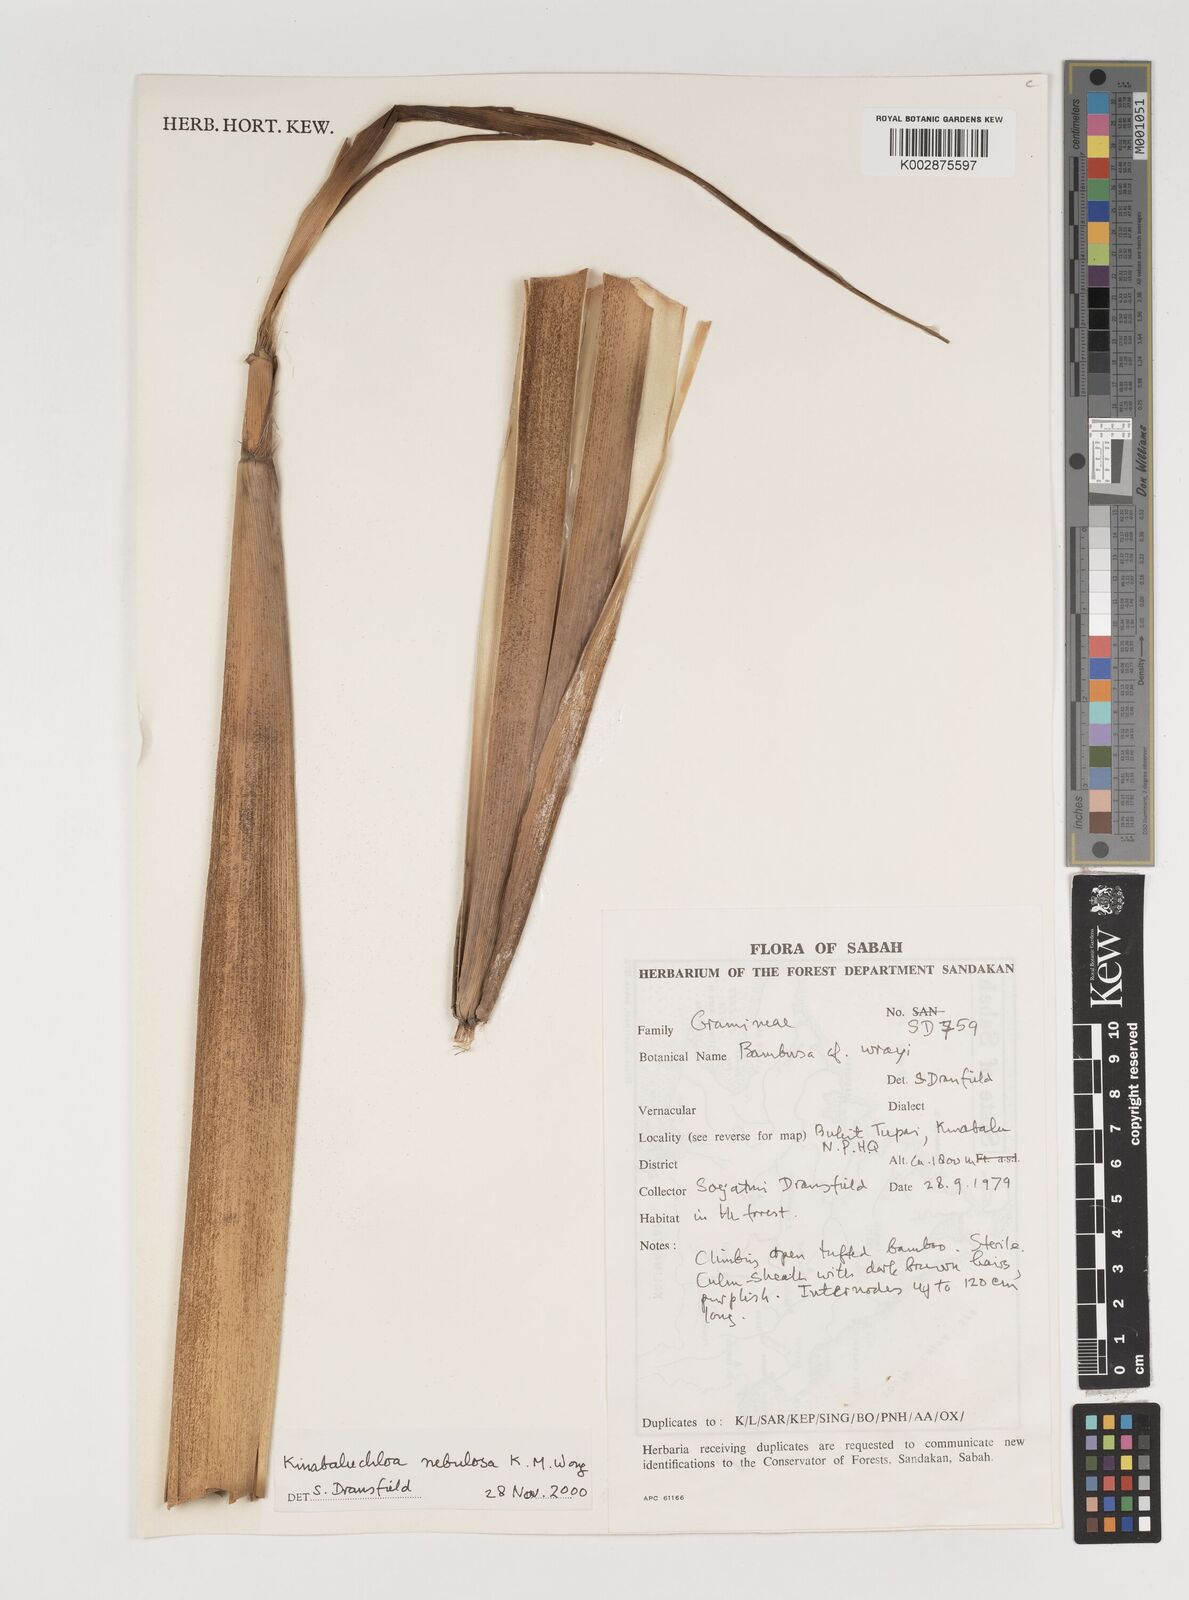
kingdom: Plantae
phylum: Tracheophyta
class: Liliopsida
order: Poales
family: Poaceae
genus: Kinabaluchloa
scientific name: Kinabaluchloa nebulosa
